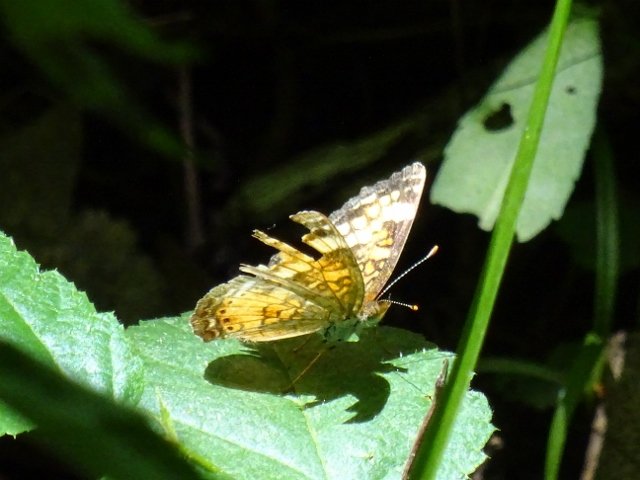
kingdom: Animalia
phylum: Arthropoda
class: Insecta
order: Lepidoptera
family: Nymphalidae
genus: Phyciodes
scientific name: Phyciodes tharos
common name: Northern Crescent
